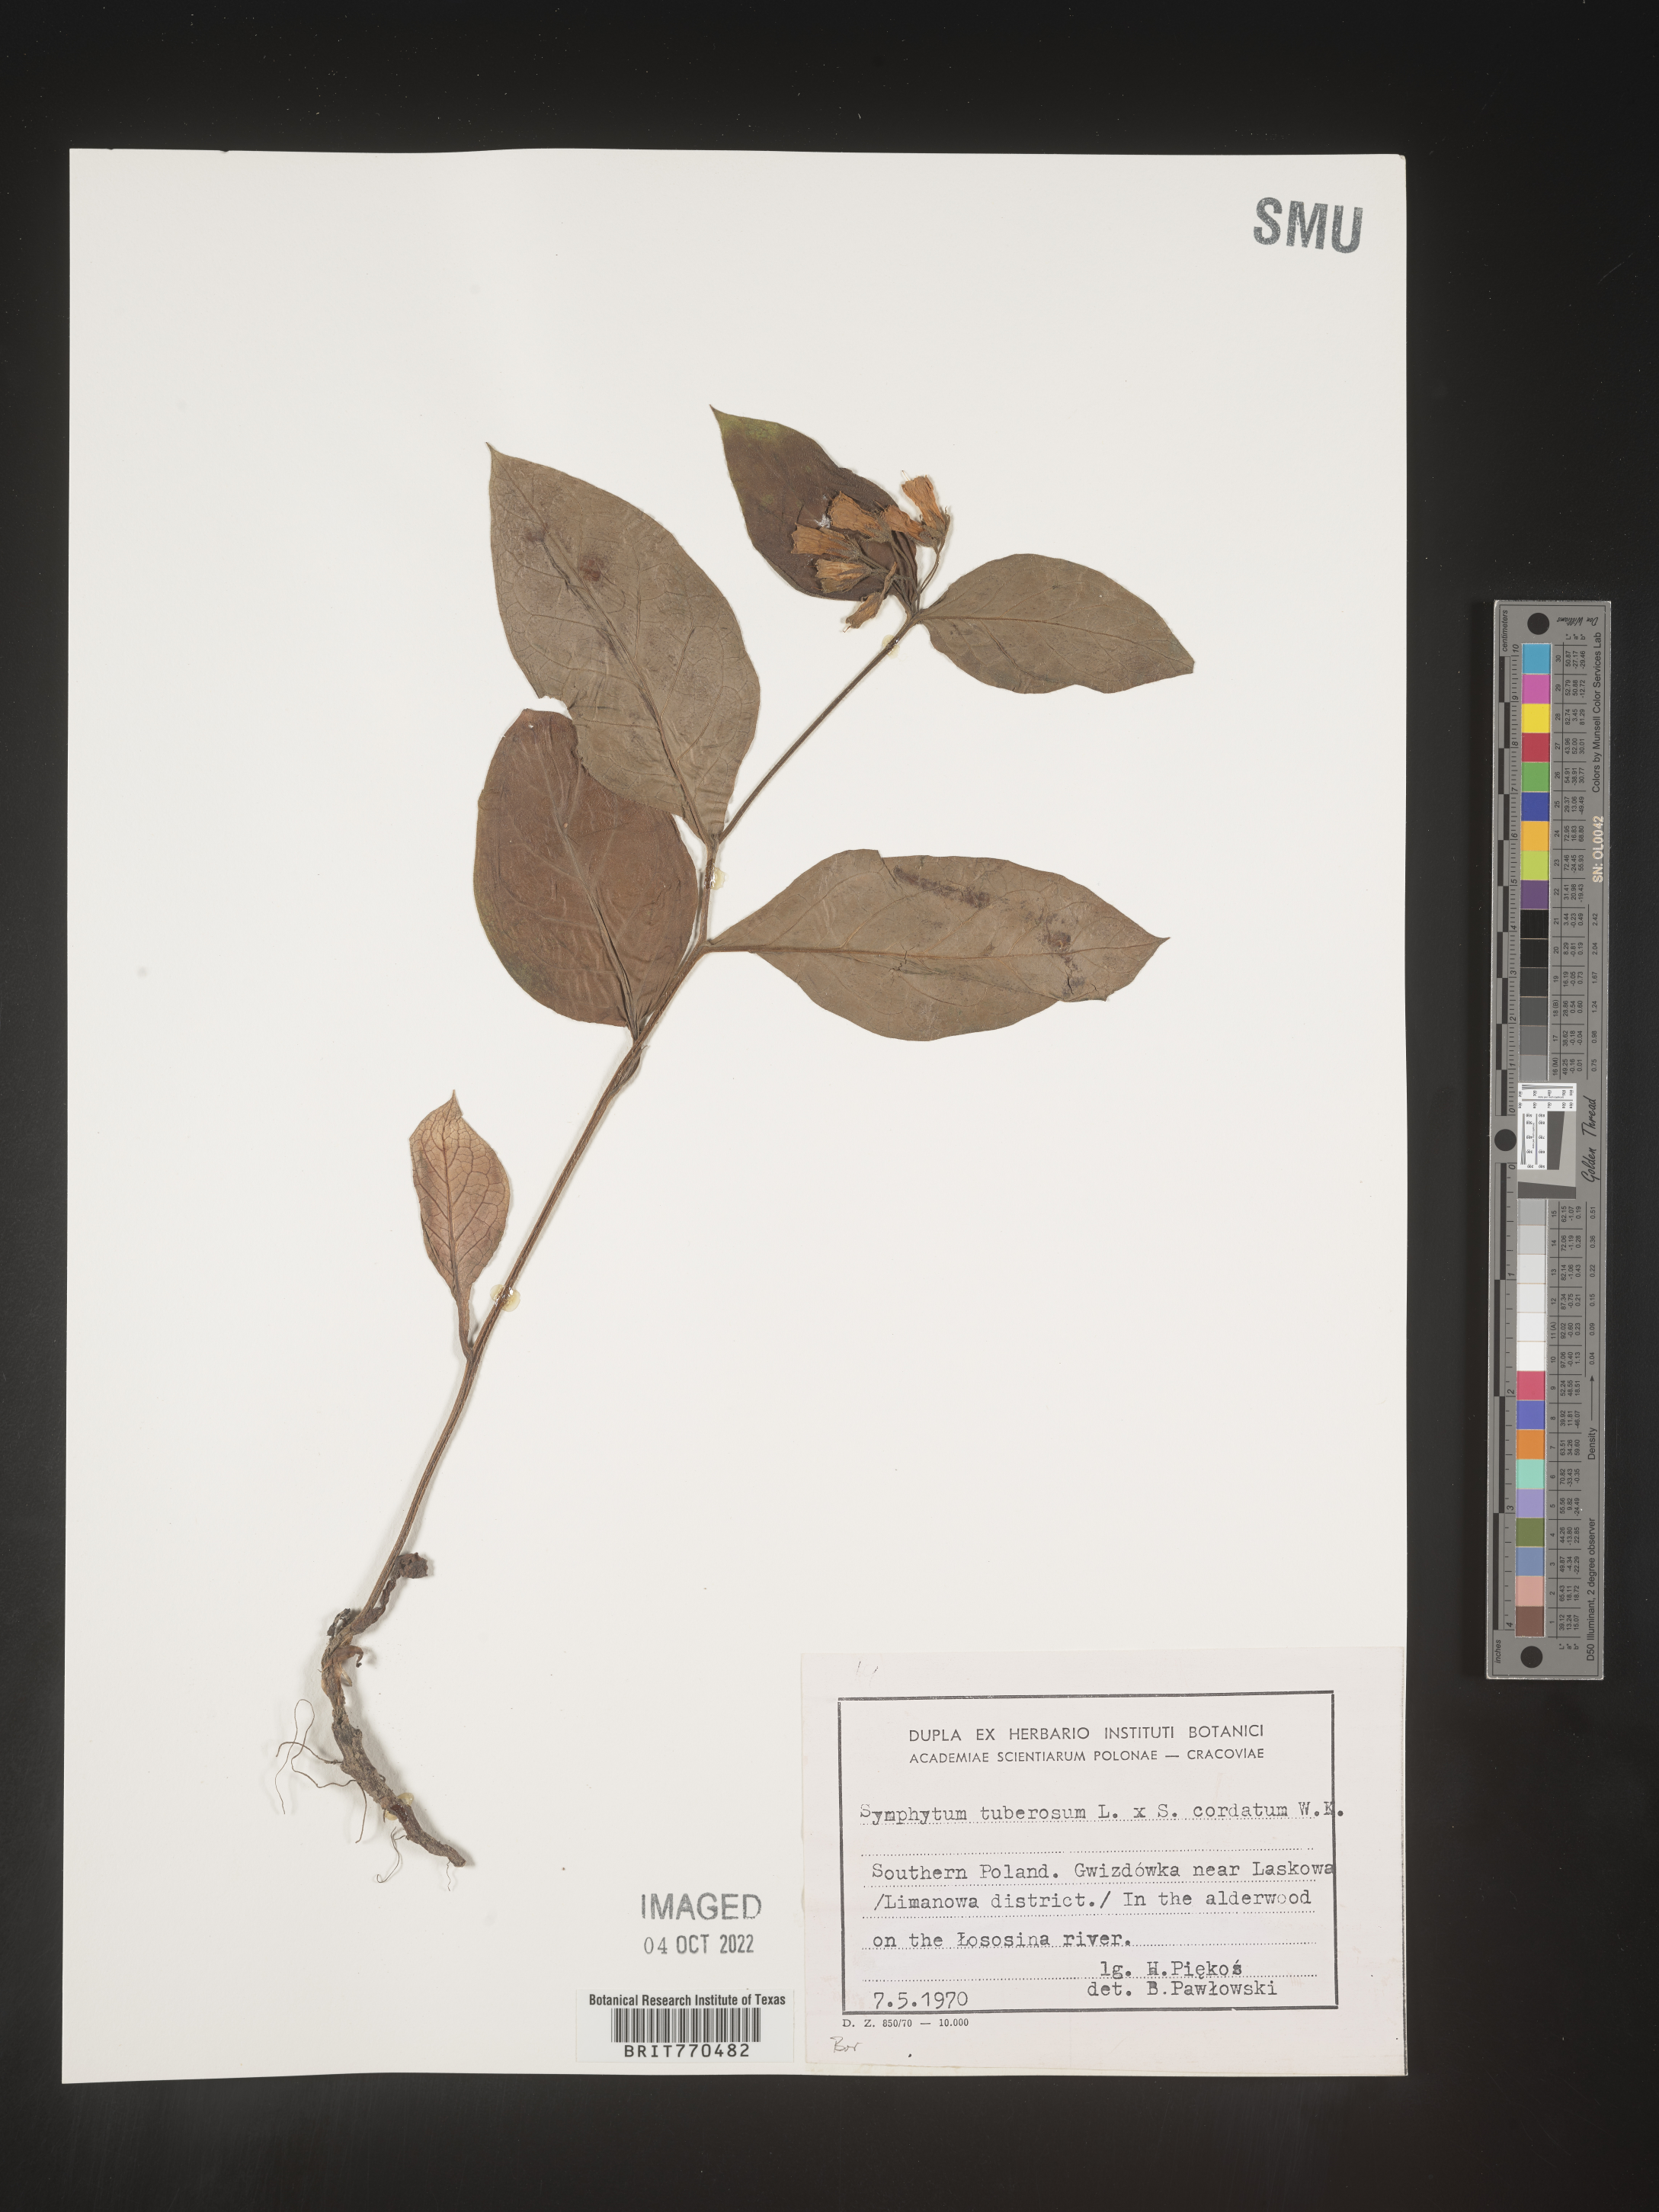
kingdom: Plantae
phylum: Tracheophyta
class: Magnoliopsida
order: Boraginales
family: Boraginaceae
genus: Symphytum
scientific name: Symphytum
